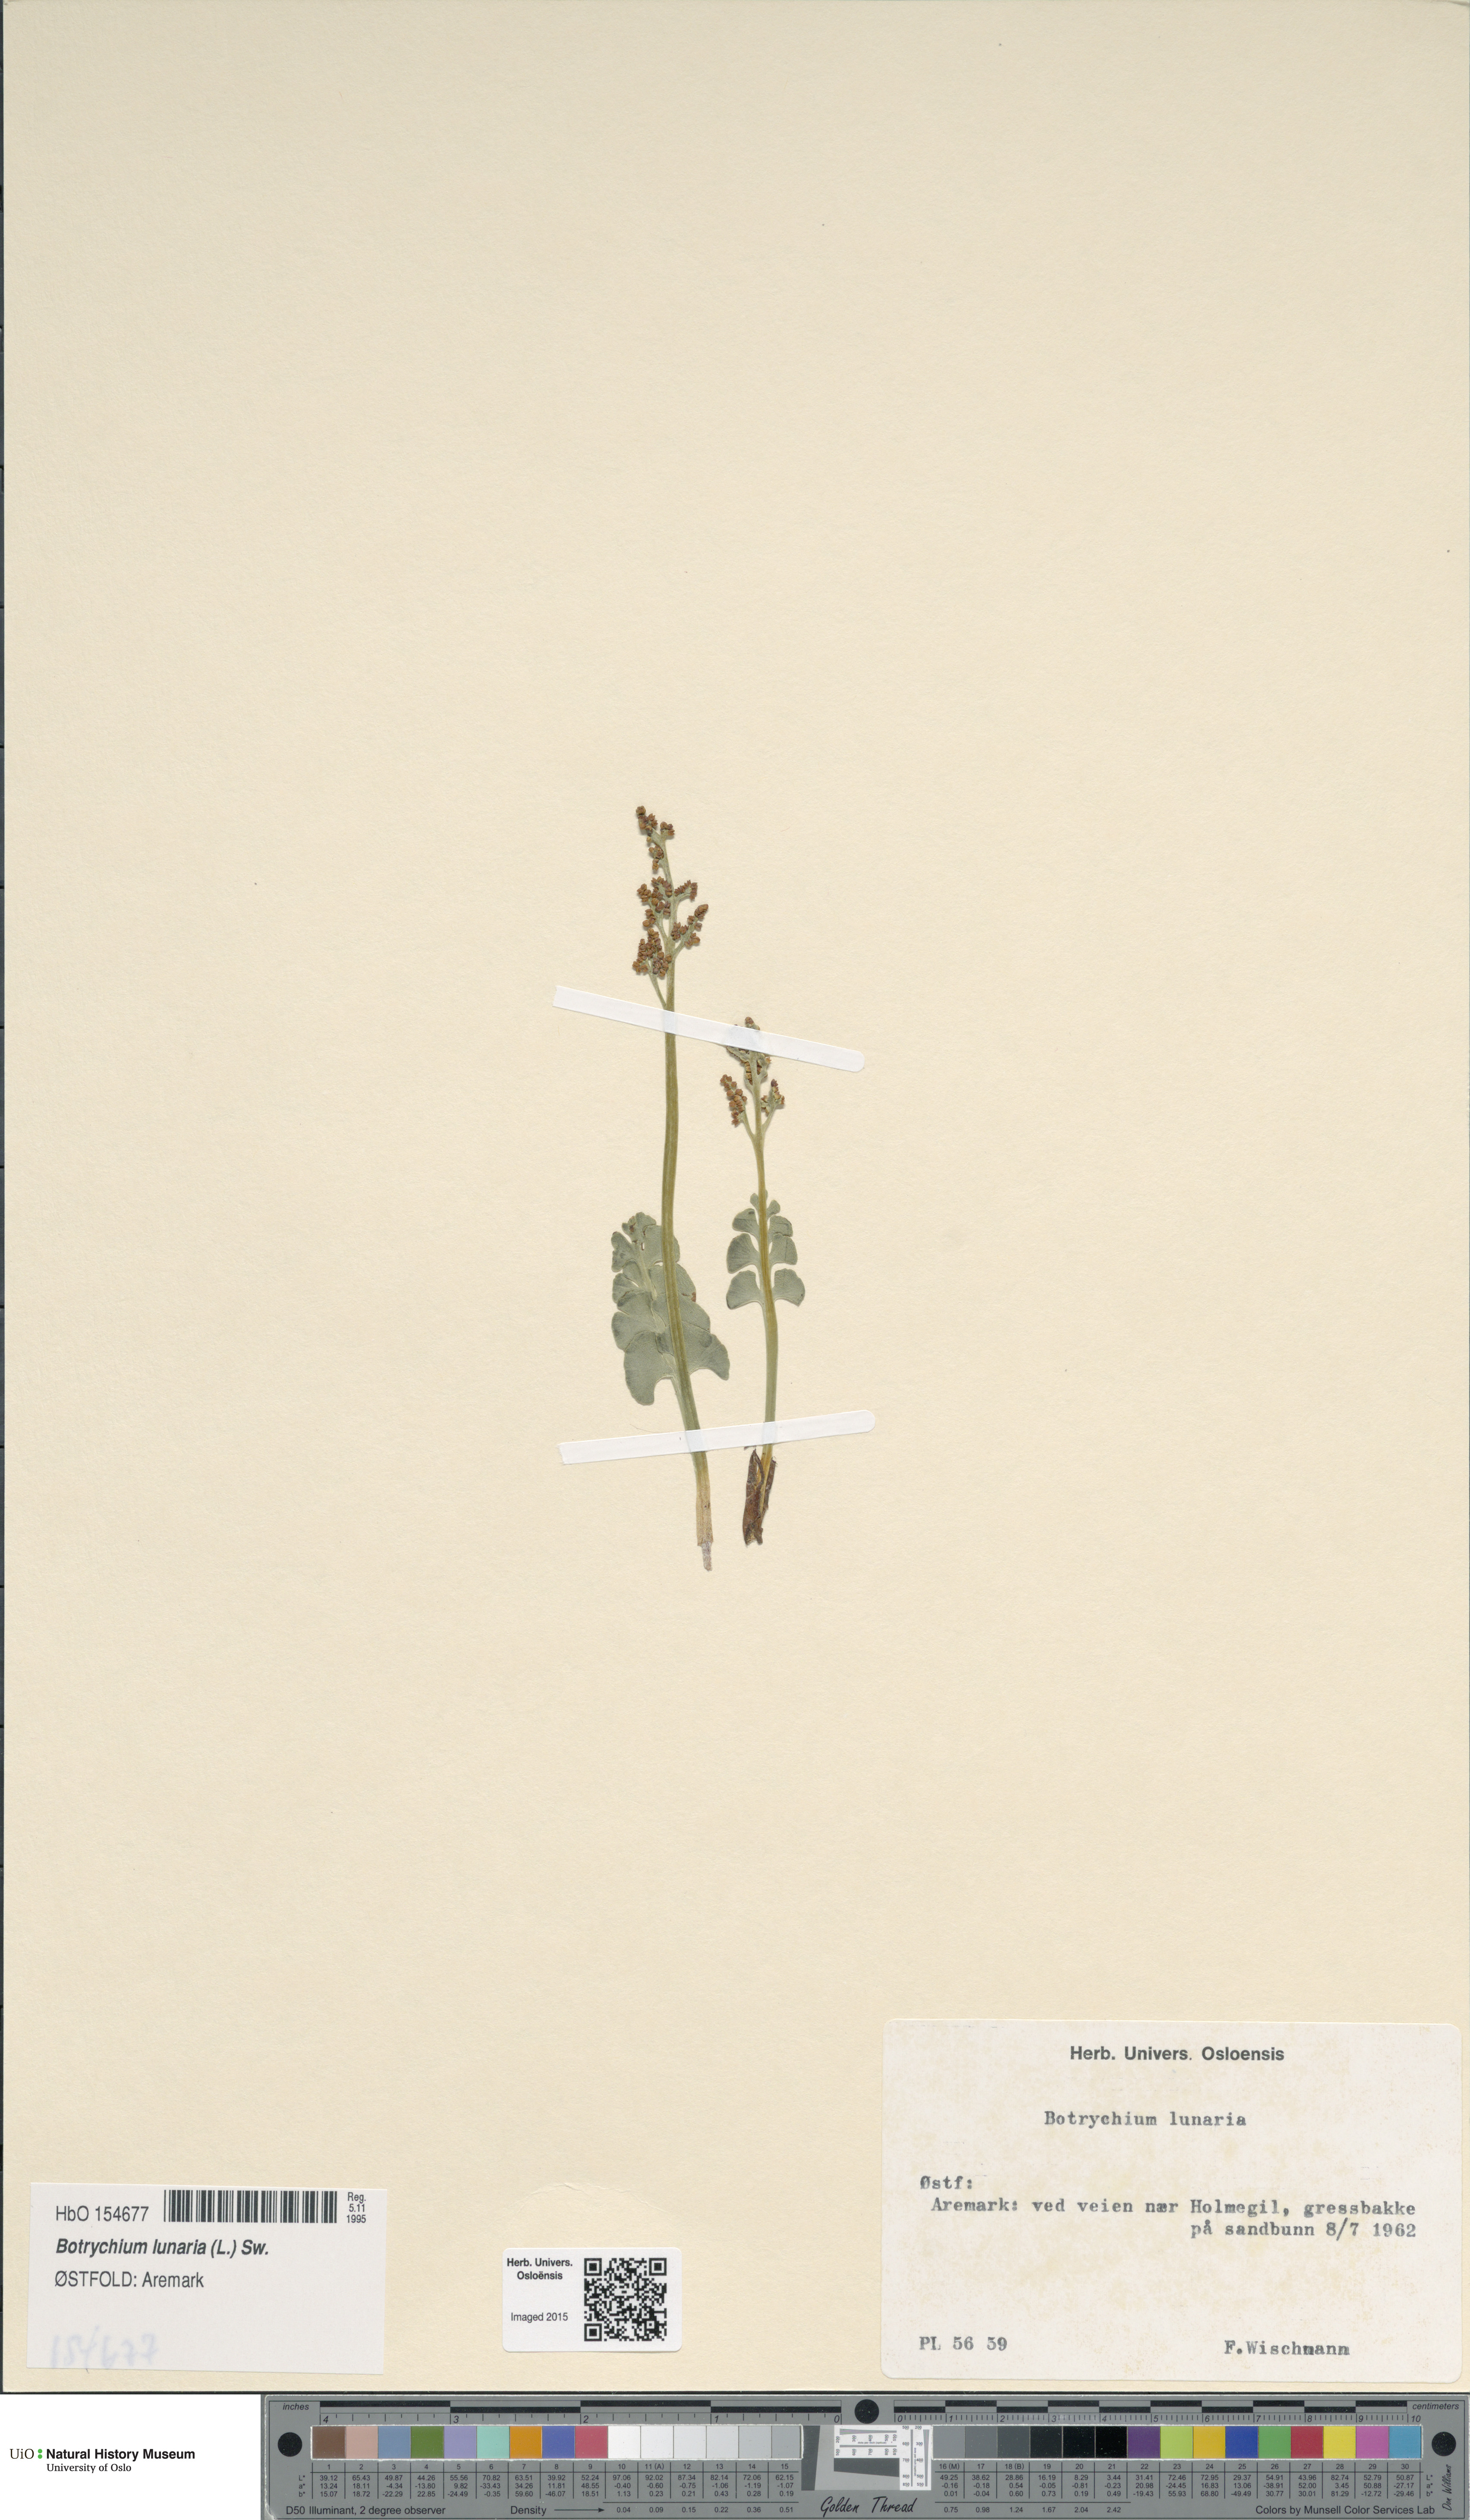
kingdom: Plantae
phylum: Tracheophyta
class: Polypodiopsida
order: Ophioglossales
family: Ophioglossaceae
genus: Botrychium
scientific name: Botrychium lunaria
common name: Moonwort
